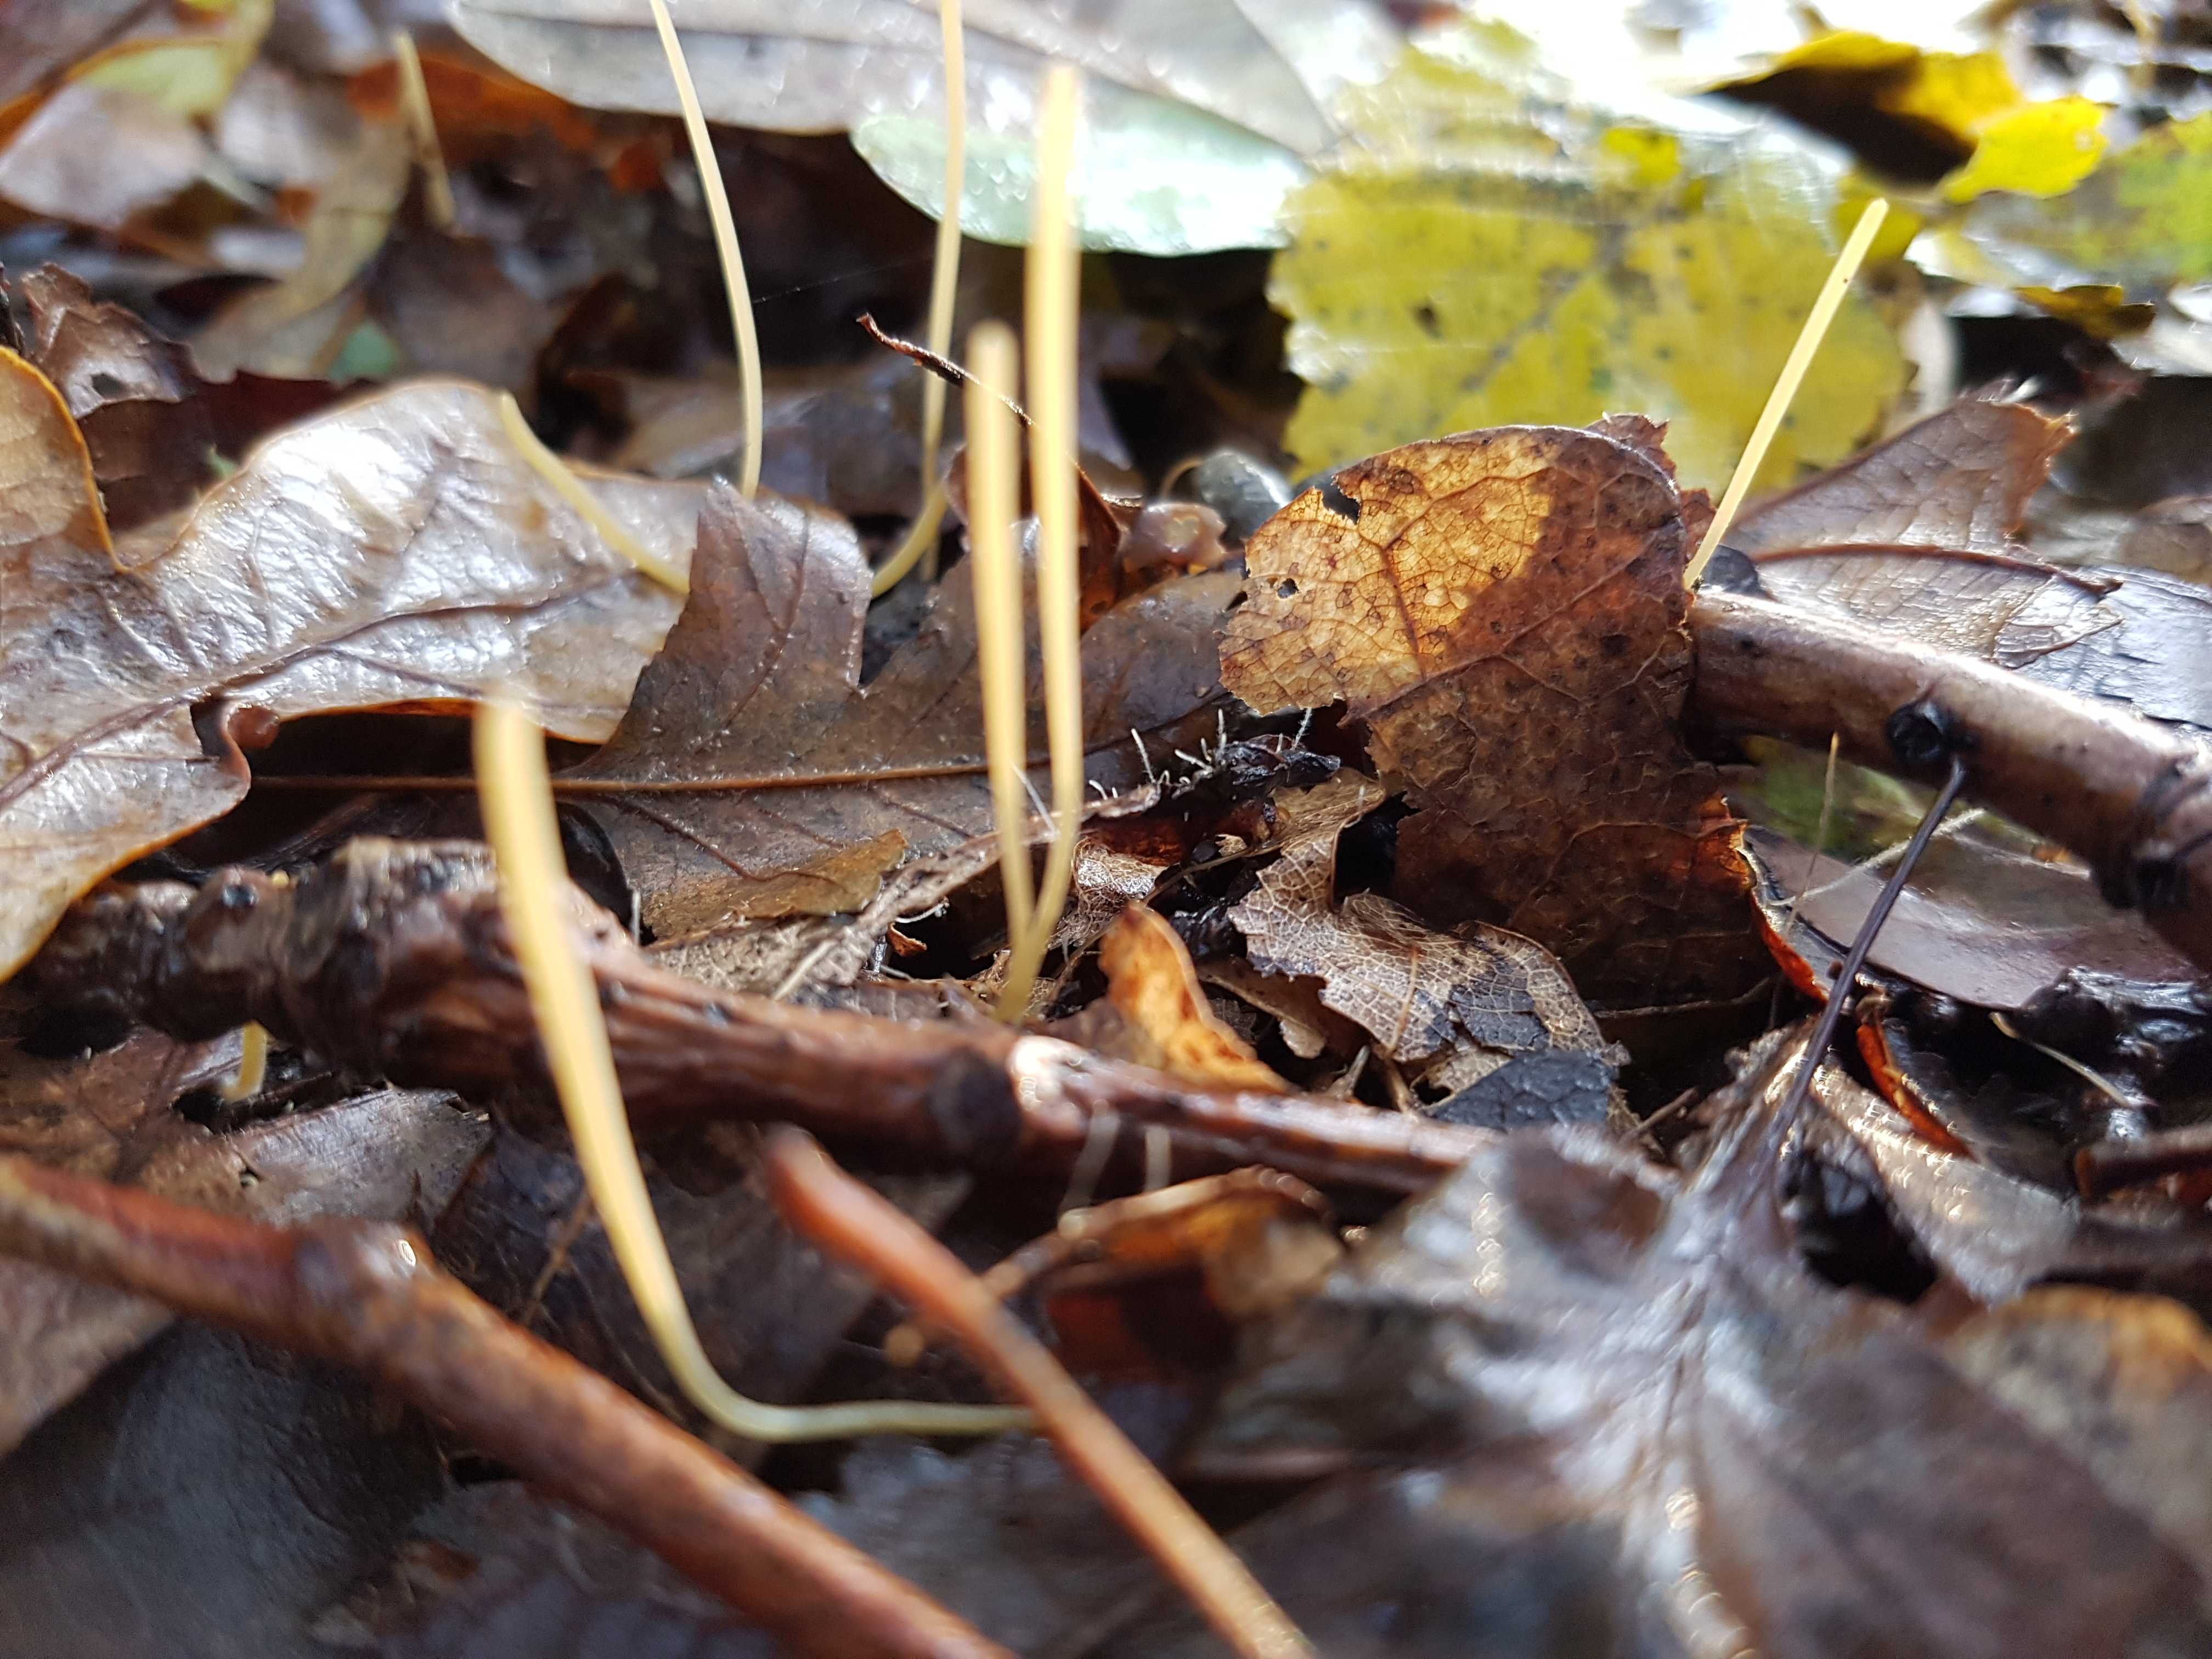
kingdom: Fungi
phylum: Basidiomycota
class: Agaricomycetes
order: Agaricales
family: Typhulaceae
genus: Typhula
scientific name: Typhula juncea
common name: trådagtig rørkølle
